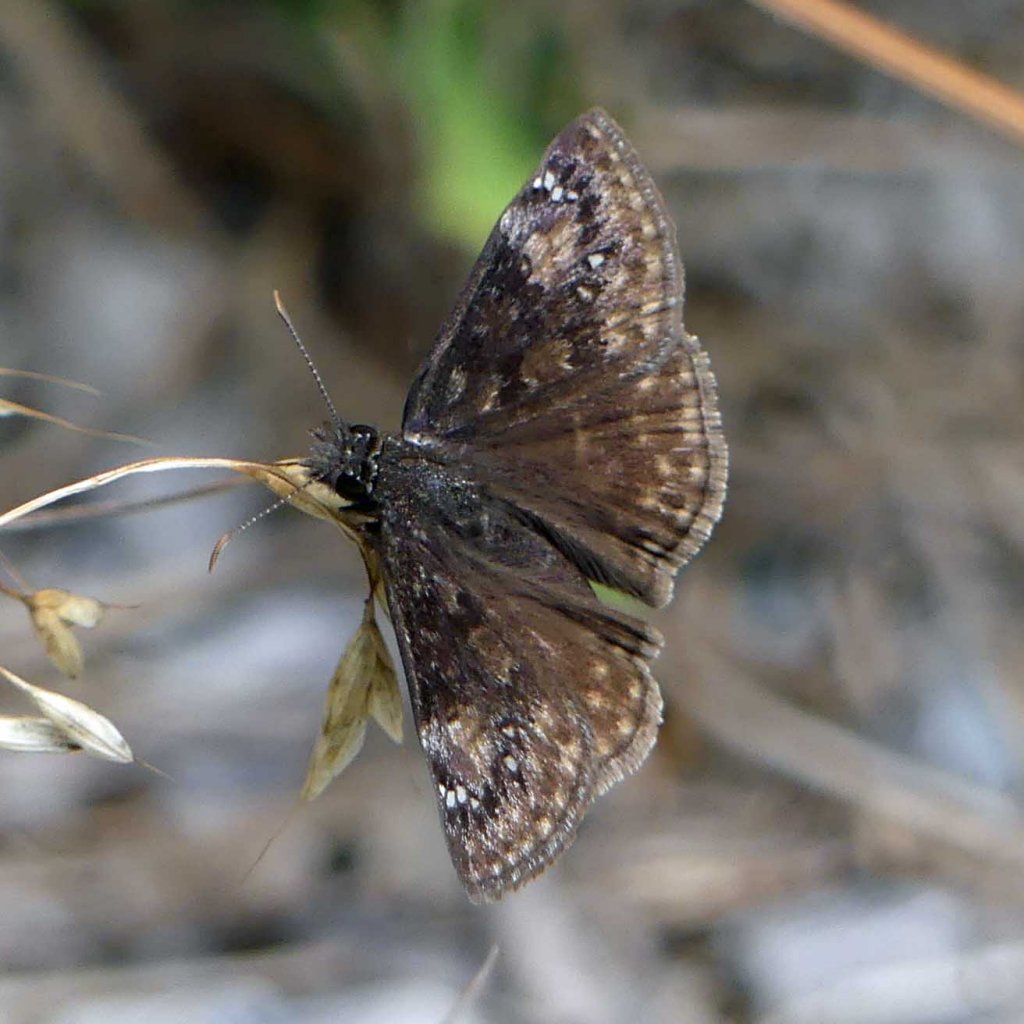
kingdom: Animalia
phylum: Arthropoda
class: Insecta
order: Lepidoptera
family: Hesperiidae
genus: Gesta
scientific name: Gesta
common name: Wild Indigo Duskywing
